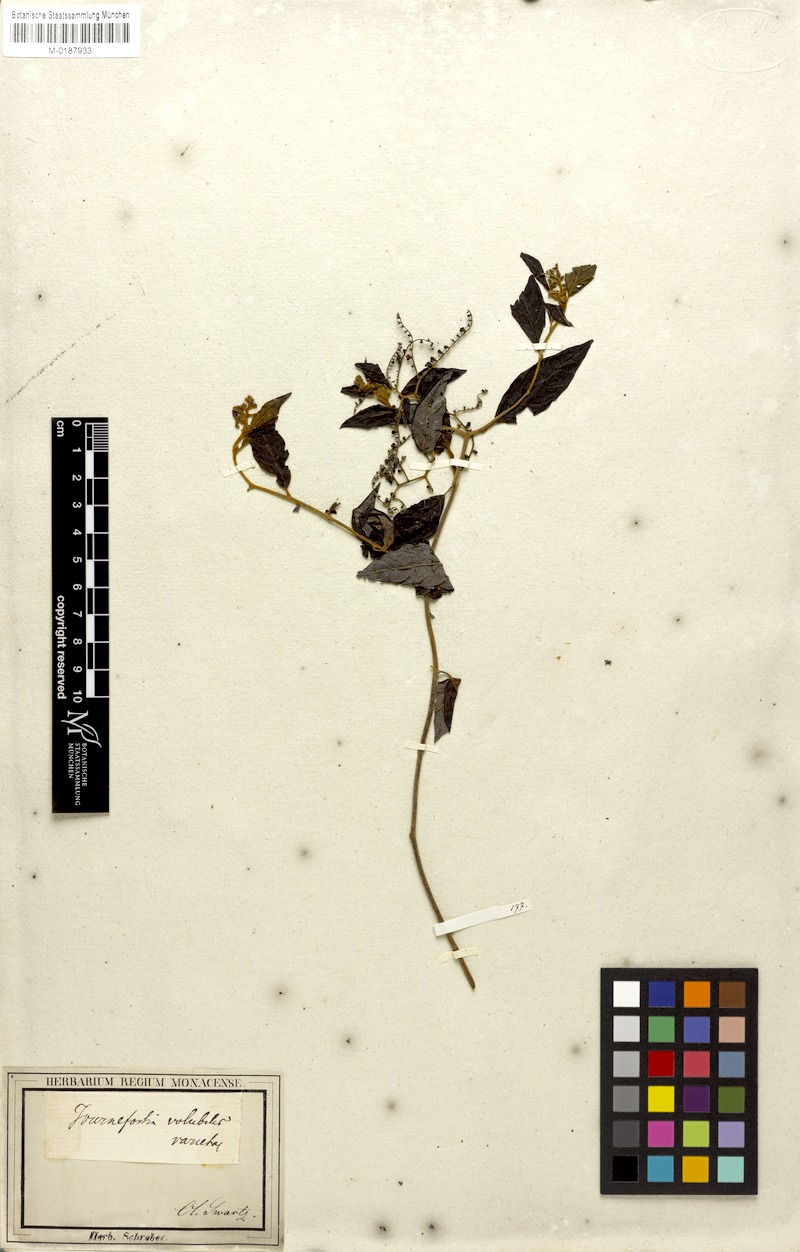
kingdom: Plantae
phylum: Tracheophyta
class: Magnoliopsida
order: Boraginales
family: Heliotropiaceae
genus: Myriopus
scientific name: Myriopus volubilis
